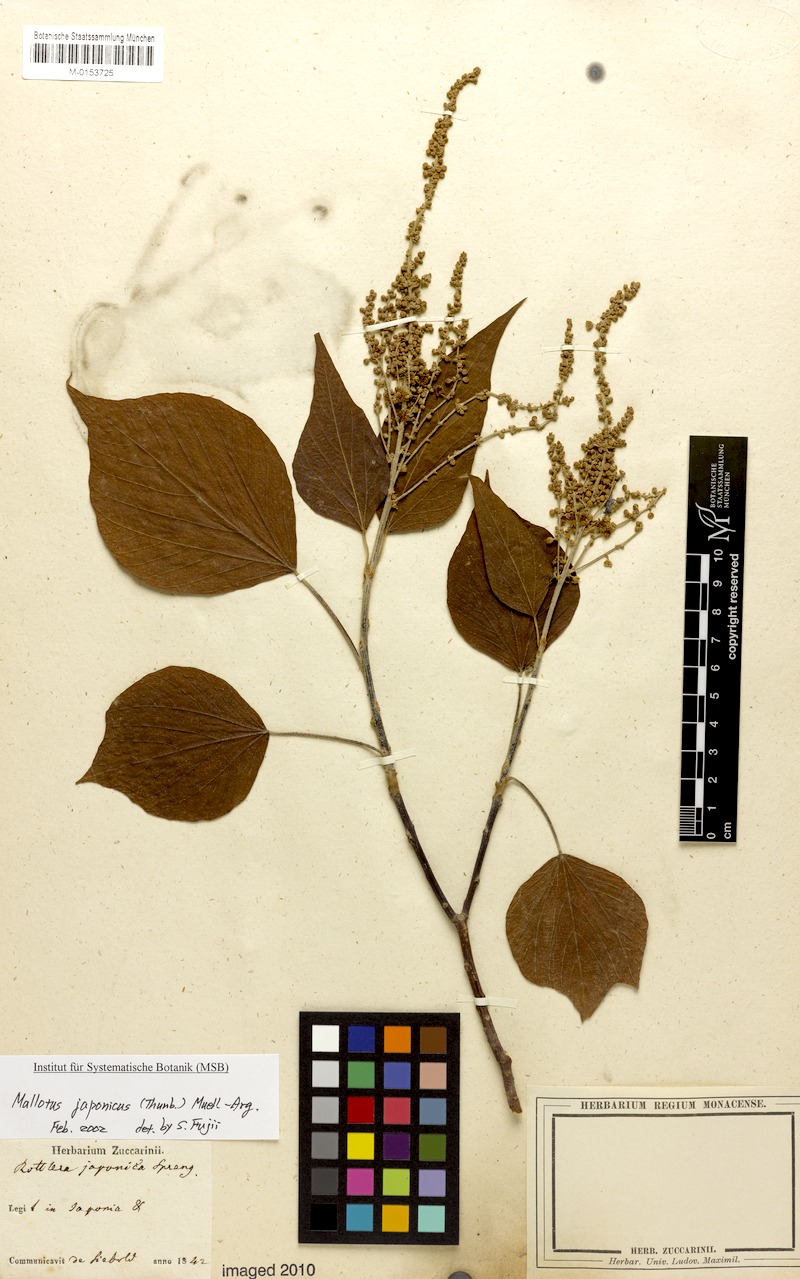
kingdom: Plantae
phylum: Tracheophyta
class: Magnoliopsida
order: Malpighiales
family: Euphorbiaceae
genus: Mallotus
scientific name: Mallotus japonicus
